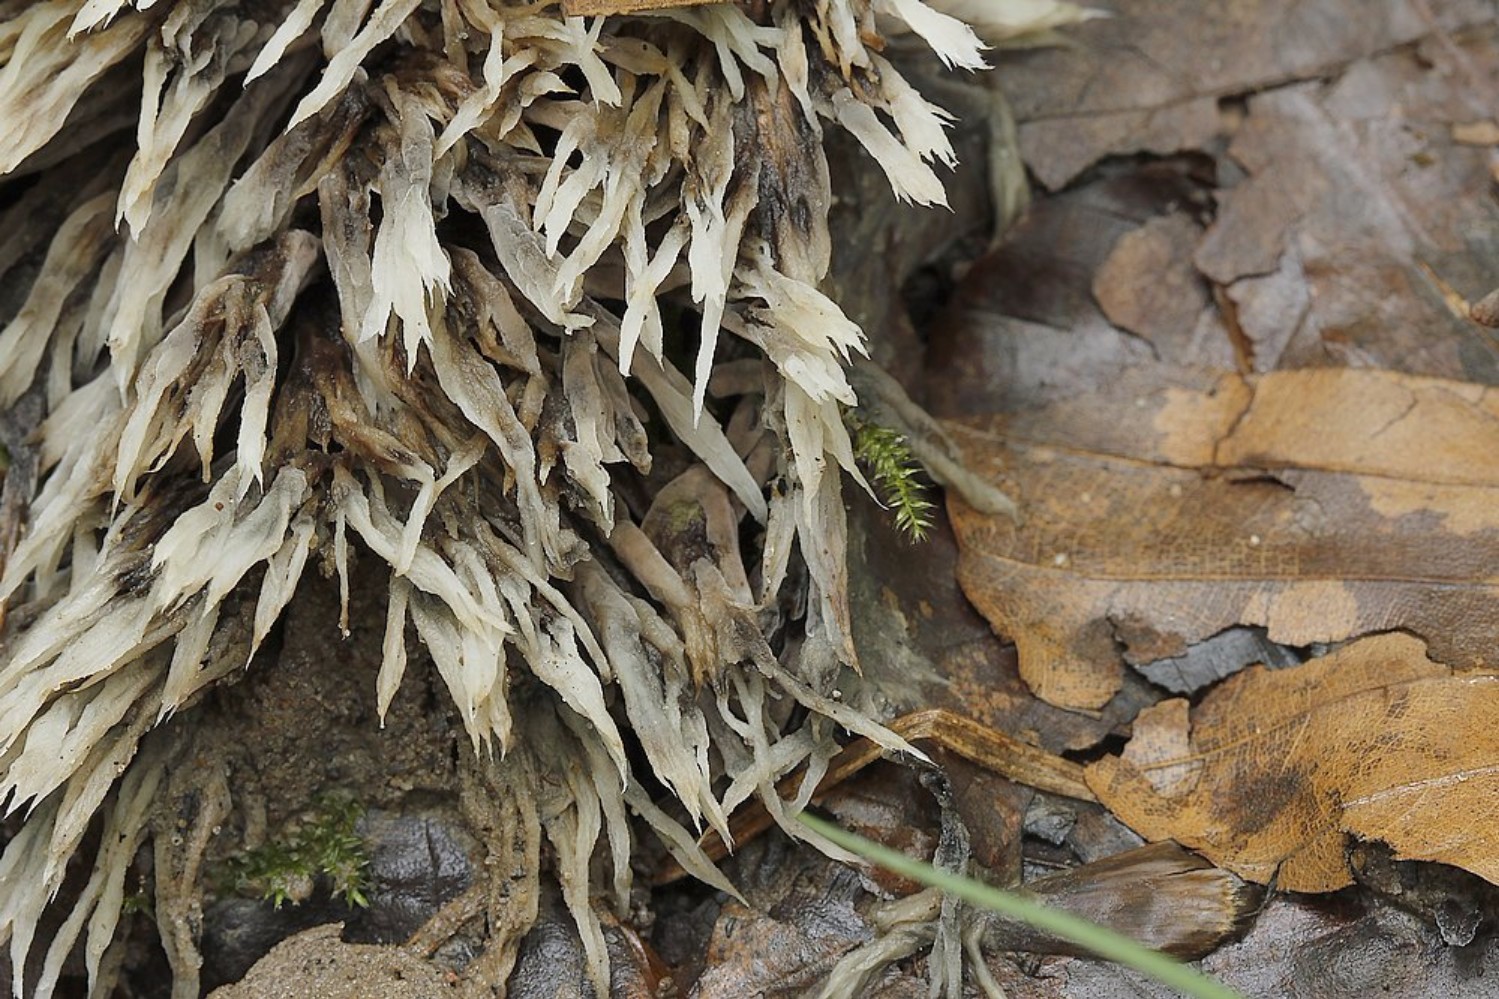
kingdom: Fungi
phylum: Basidiomycota
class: Agaricomycetes
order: Thelephorales
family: Thelephoraceae
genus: Thelephora
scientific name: Thelephora penicillata
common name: fladtrådt frynsesvamp
